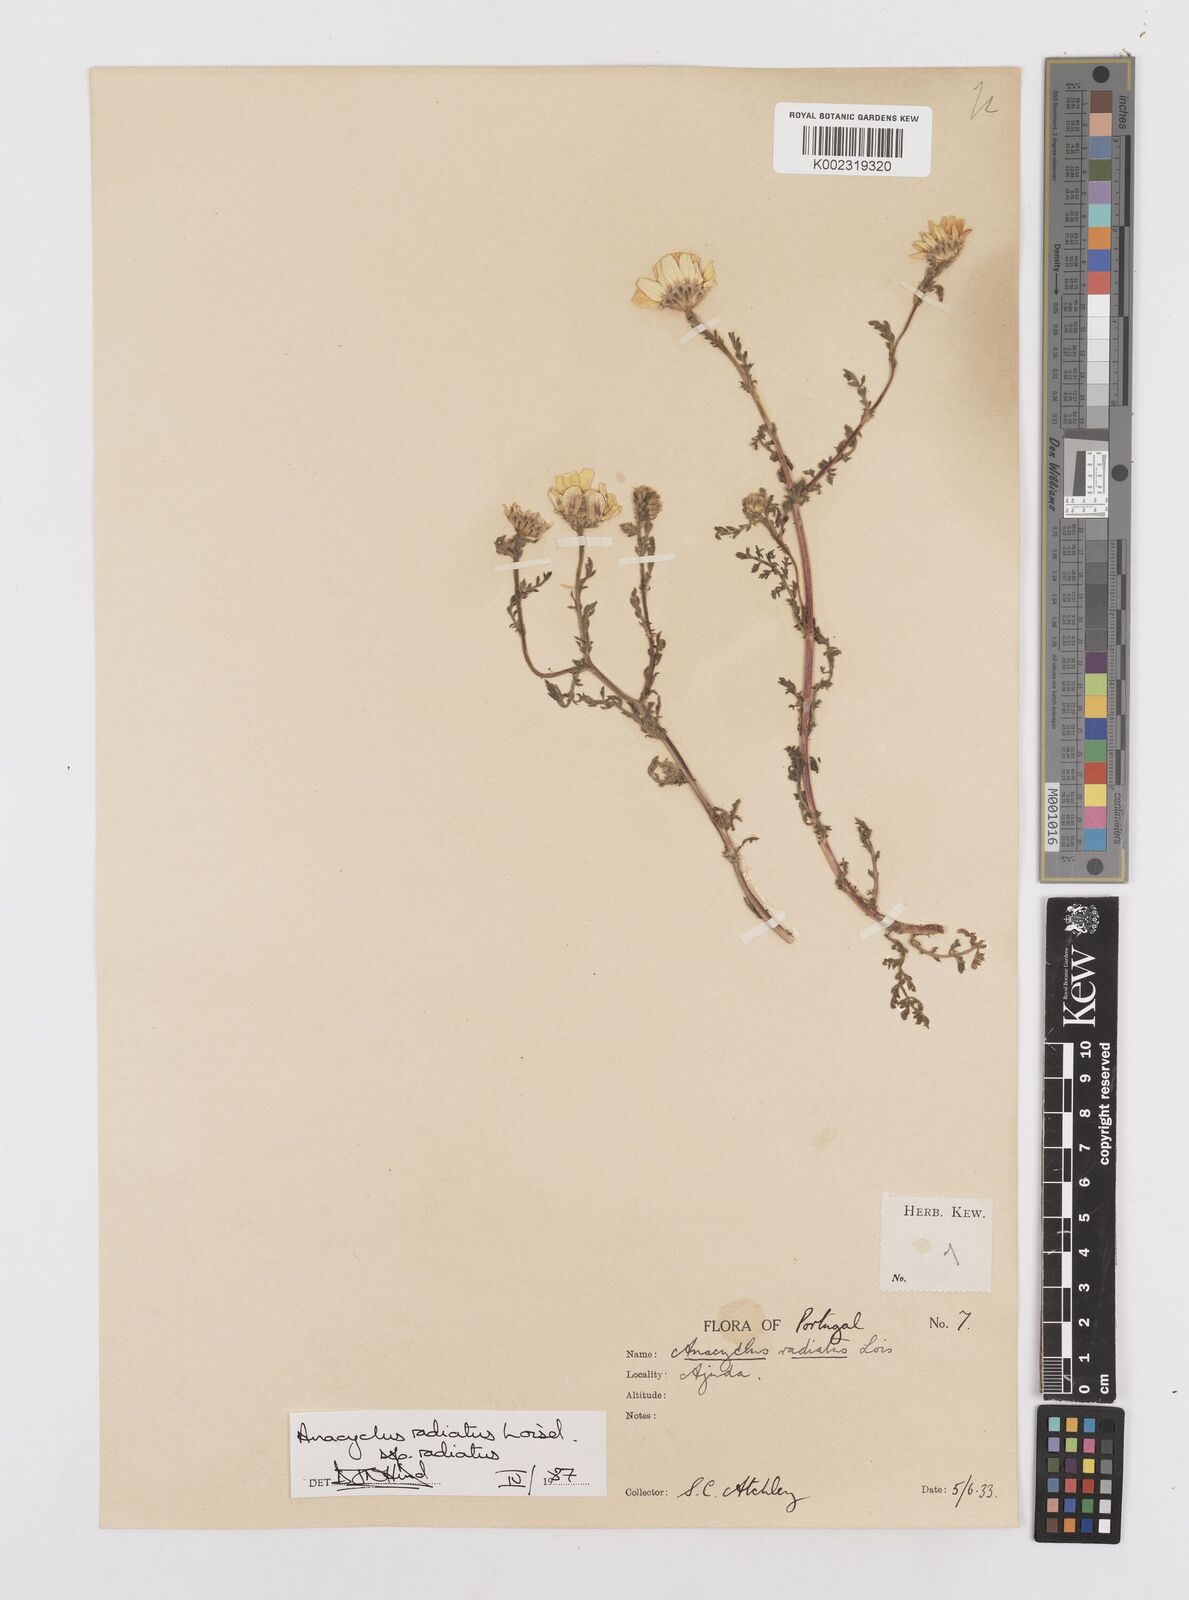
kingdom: Plantae
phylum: Tracheophyta
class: Magnoliopsida
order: Asterales
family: Asteraceae
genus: Anacyclus
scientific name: Anacyclus radiatus
